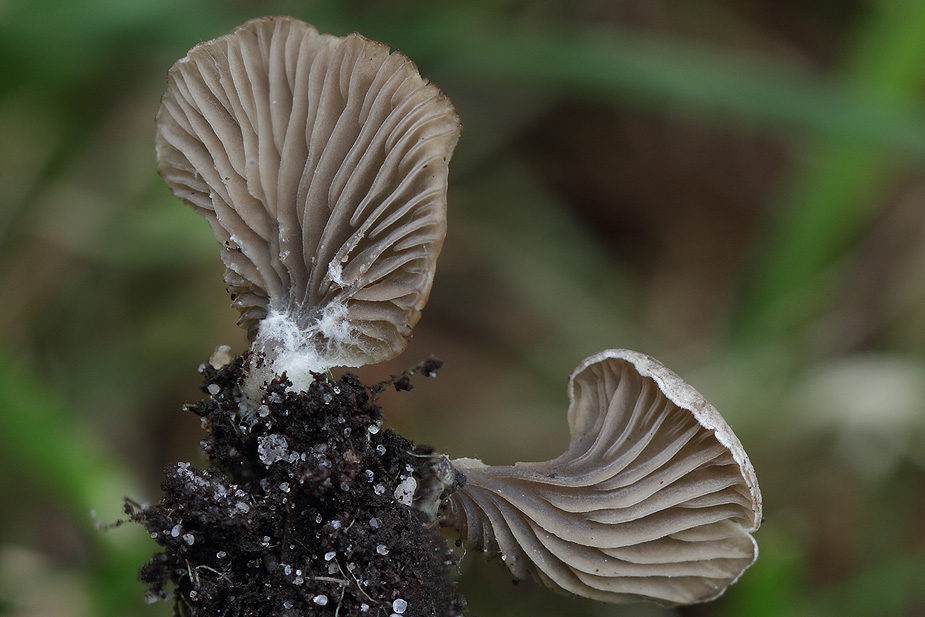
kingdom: Fungi
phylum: Basidiomycota
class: Agaricomycetes
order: Agaricales
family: Hygrophoraceae
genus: Arrhenia
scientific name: Arrhenia acerosa
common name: muslinge-fontænehat
